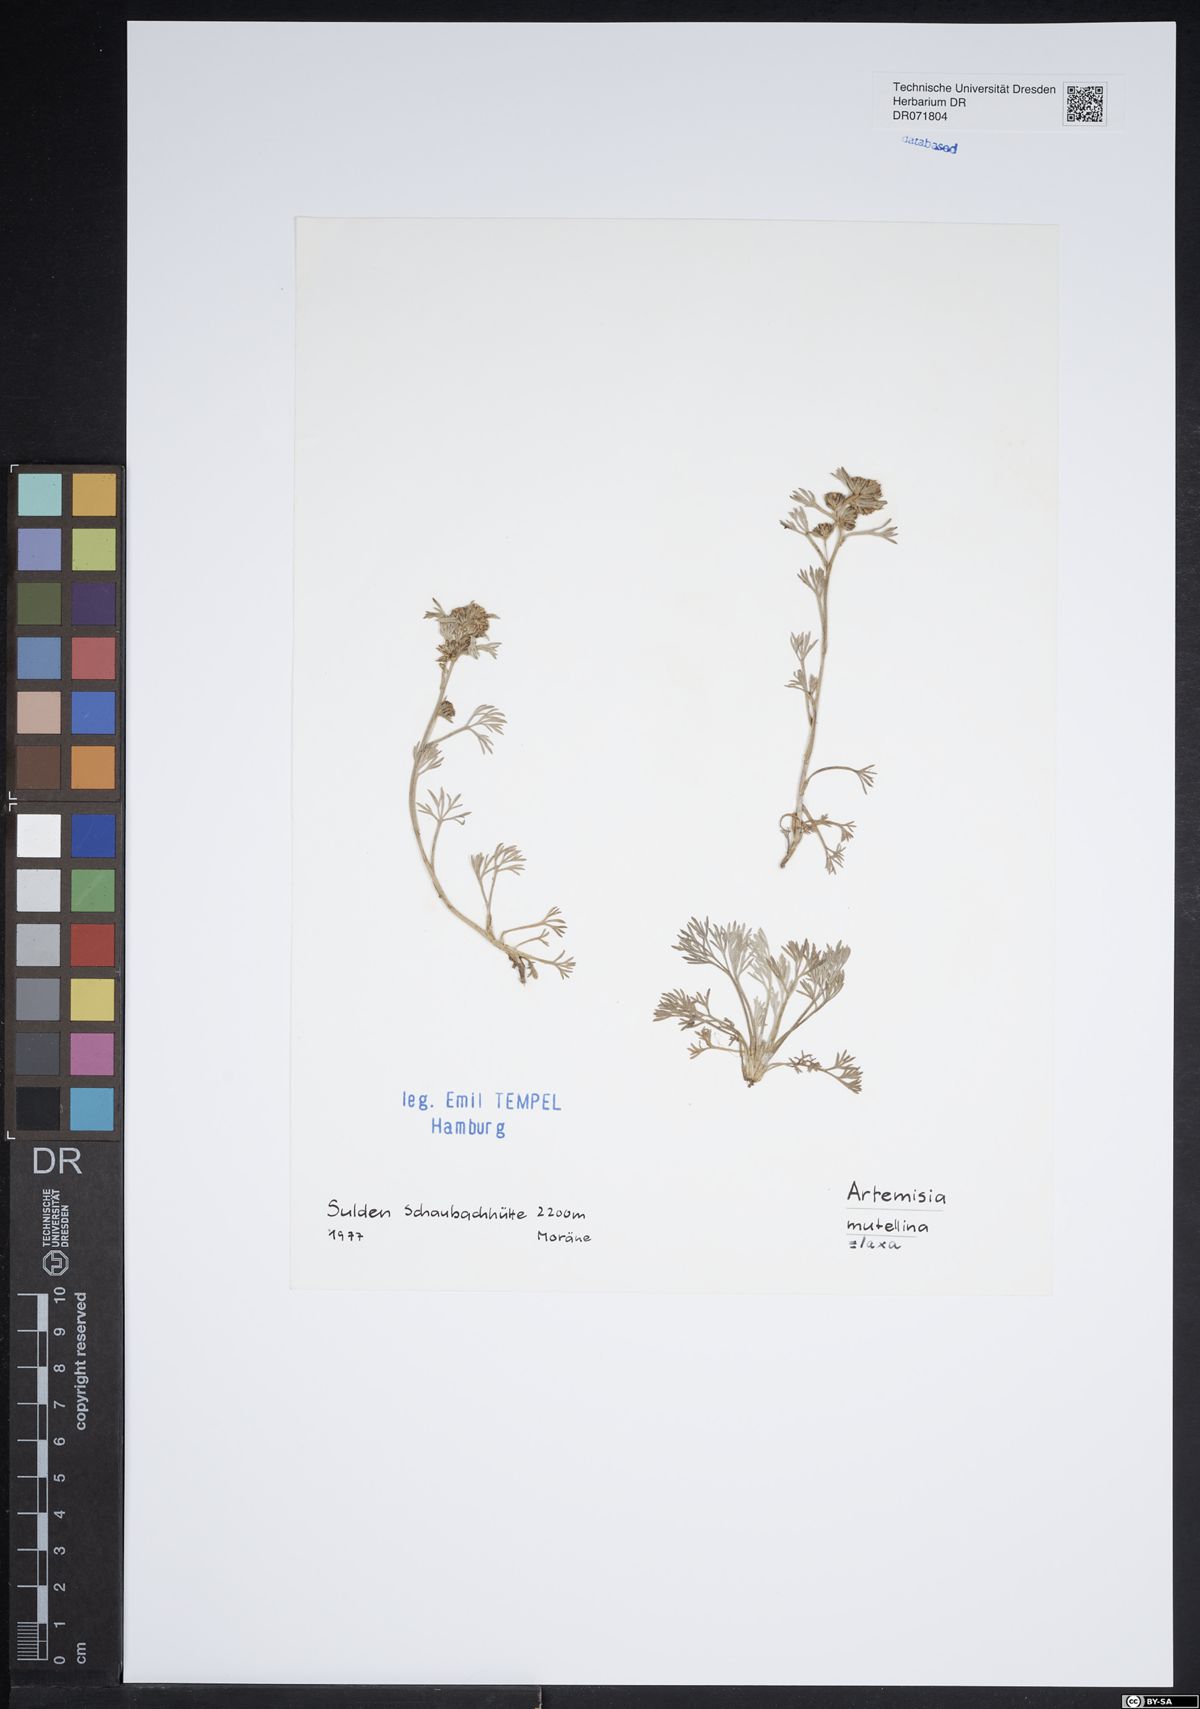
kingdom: Plantae
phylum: Tracheophyta
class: Magnoliopsida
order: Asterales
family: Asteraceae
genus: Artemisia
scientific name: Artemisia mutellina
